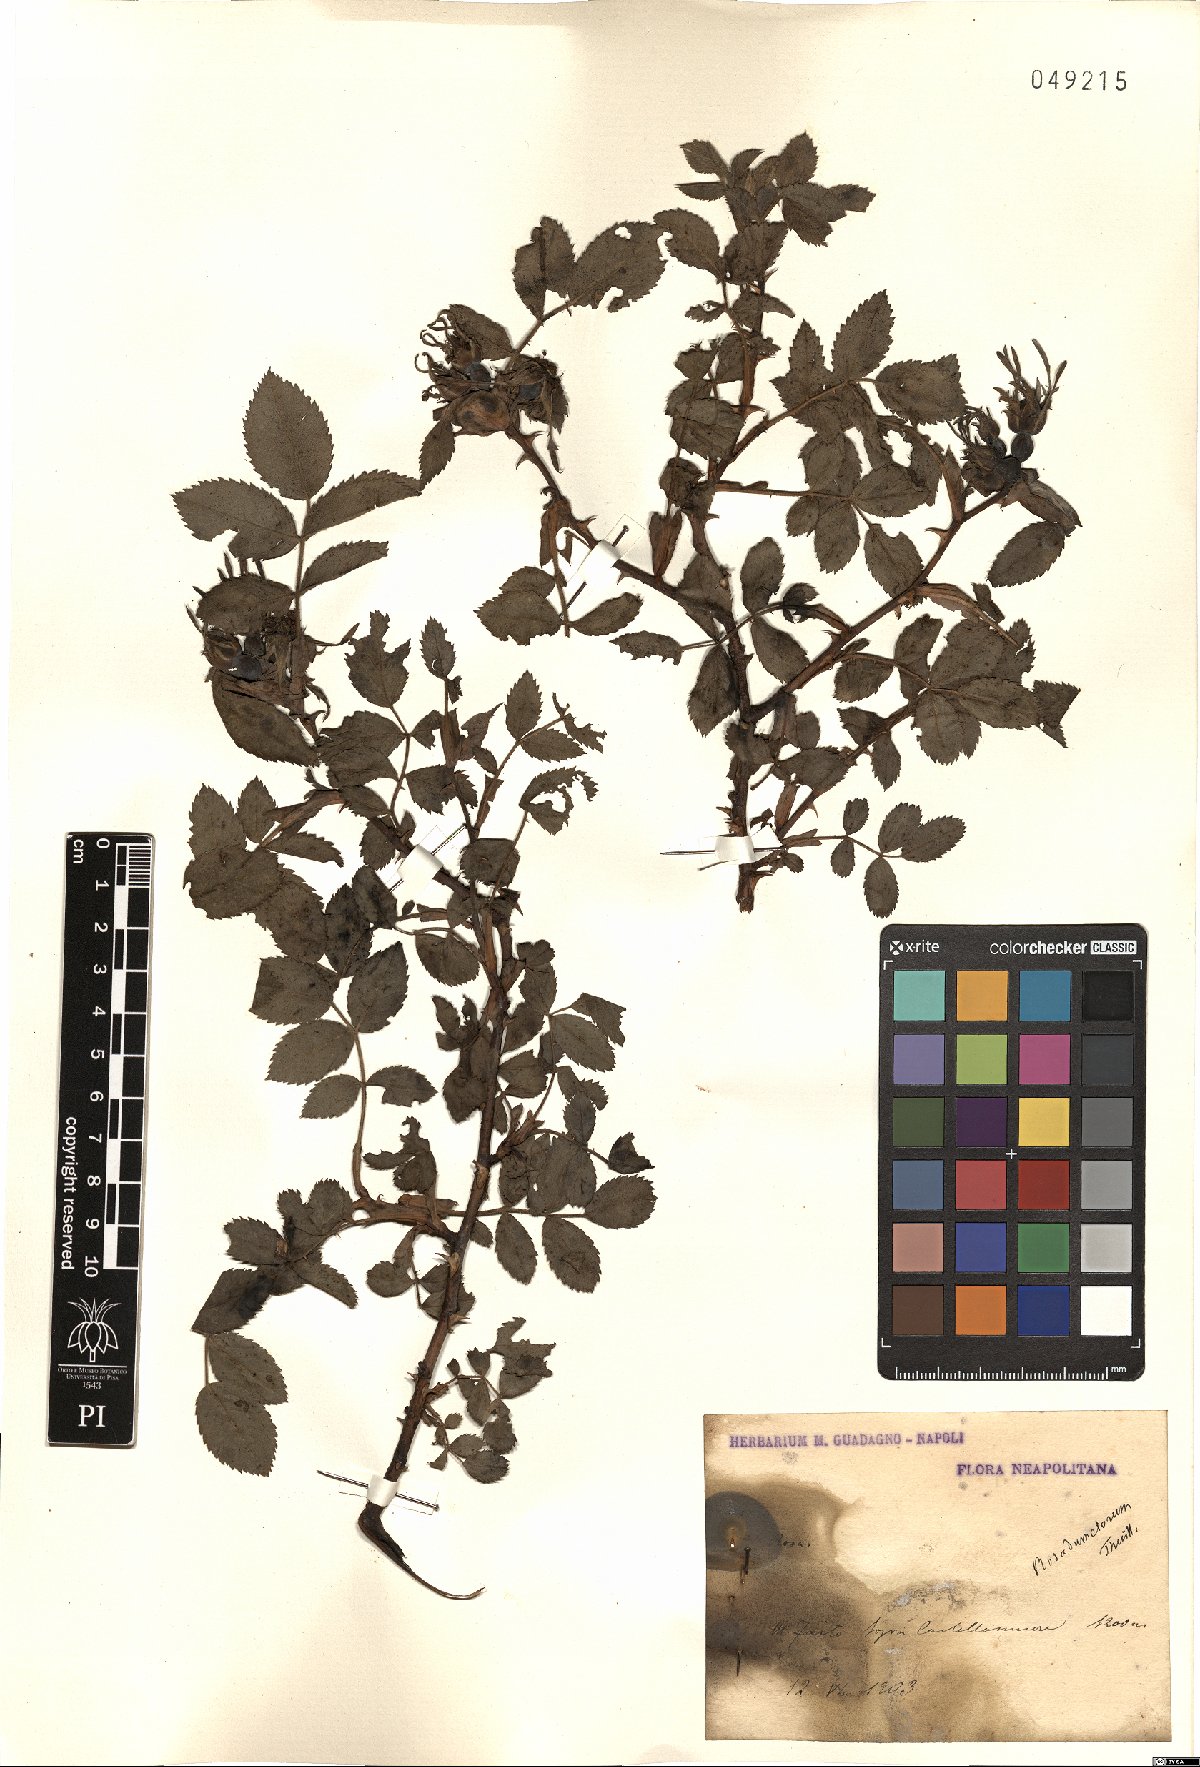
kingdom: Plantae
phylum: Tracheophyta
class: Magnoliopsida
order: Rosales
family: Rosaceae
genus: Rosa
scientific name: Rosa corymbifera
